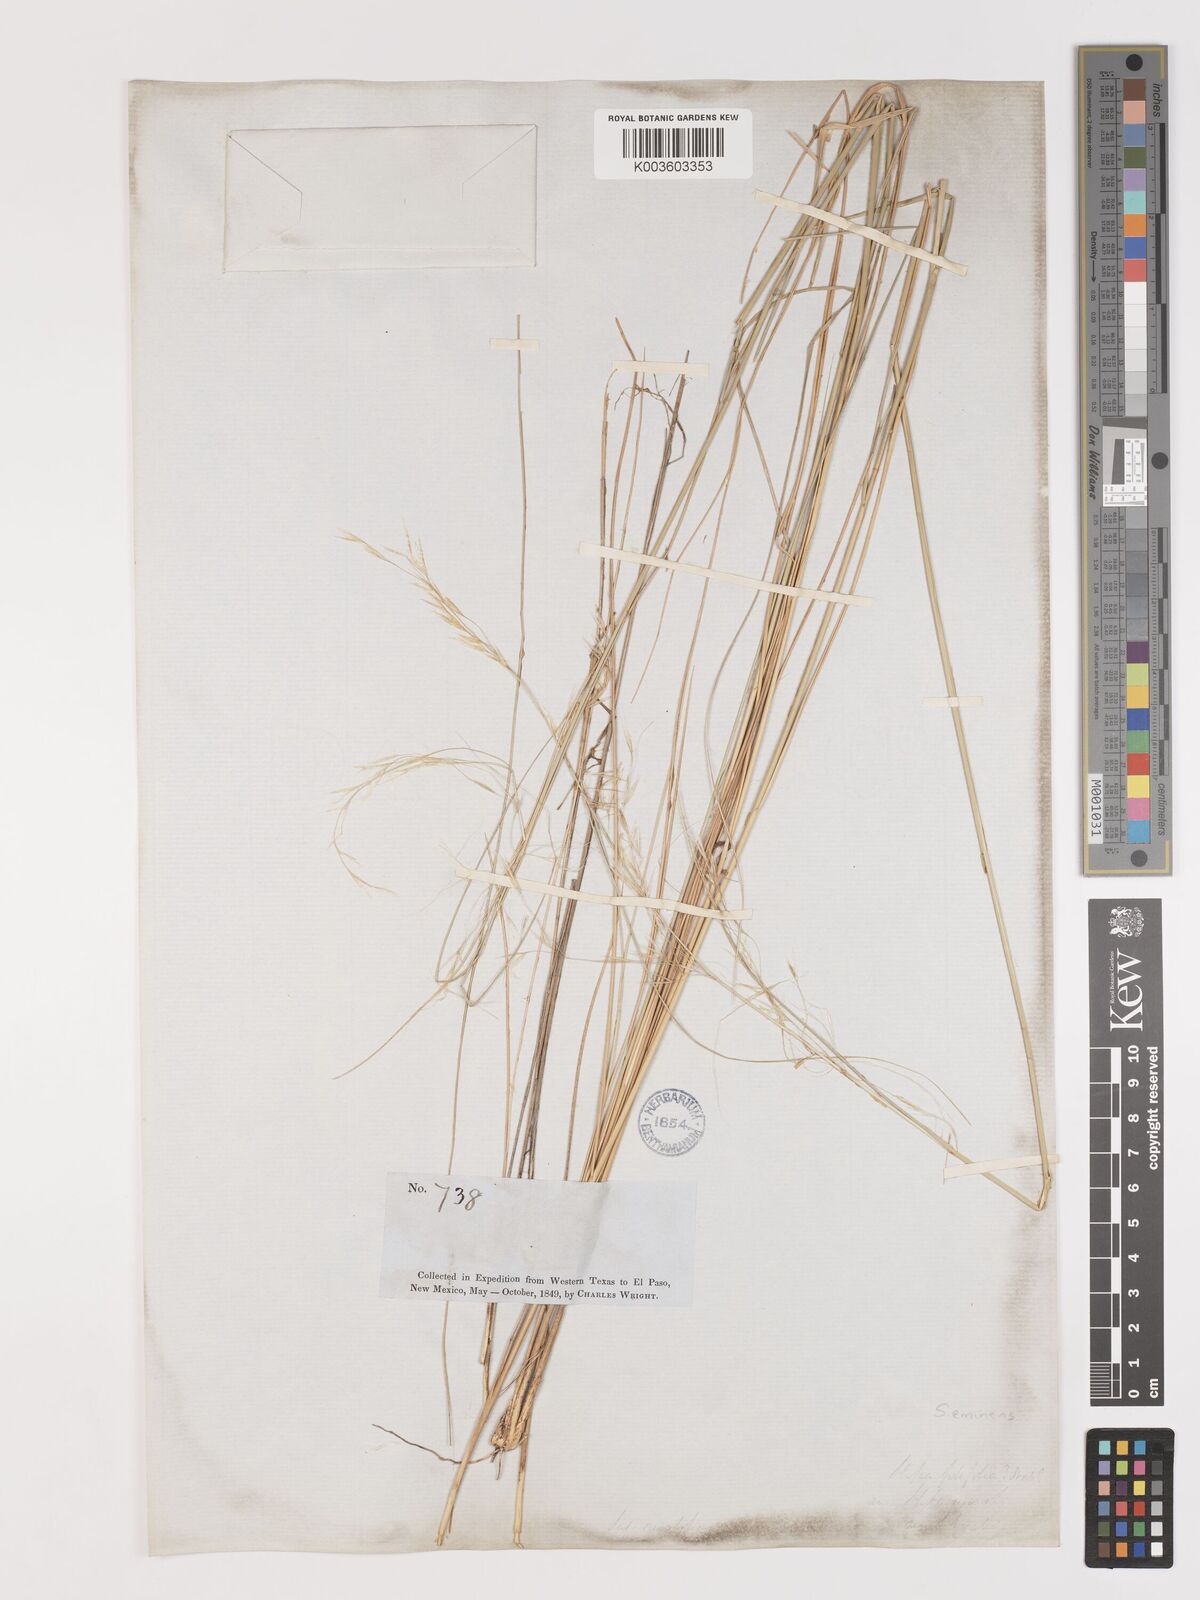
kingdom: Plantae
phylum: Tracheophyta
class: Liliopsida
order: Poales
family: Poaceae
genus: Nassella
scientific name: Nassella neesiana
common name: American needle-grass
